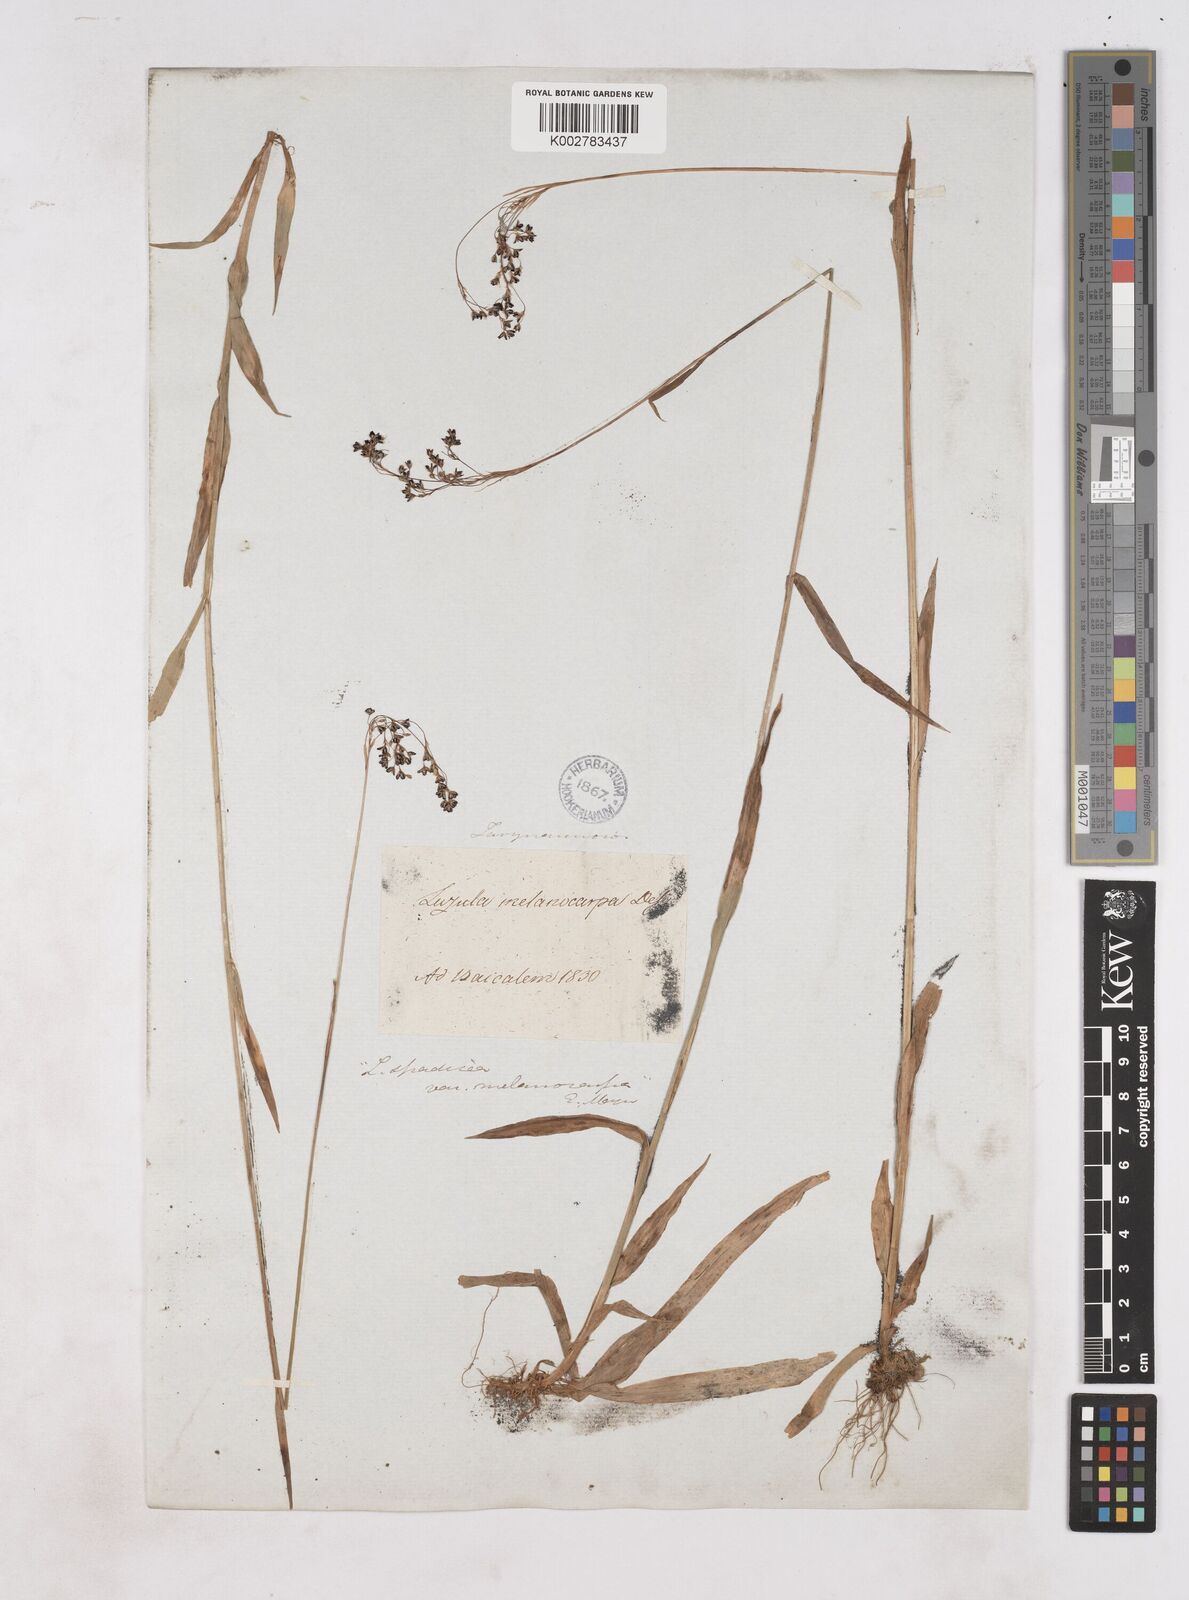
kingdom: Plantae
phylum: Tracheophyta
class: Liliopsida
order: Poales
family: Juncaceae
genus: Luzula
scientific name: Luzula
